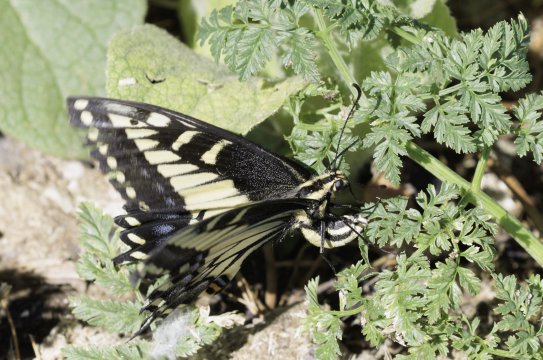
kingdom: Animalia
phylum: Arthropoda
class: Insecta
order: Lepidoptera
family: Papilionidae
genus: Papilio
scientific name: Papilio zelicaon
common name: Anise Swallowtail
